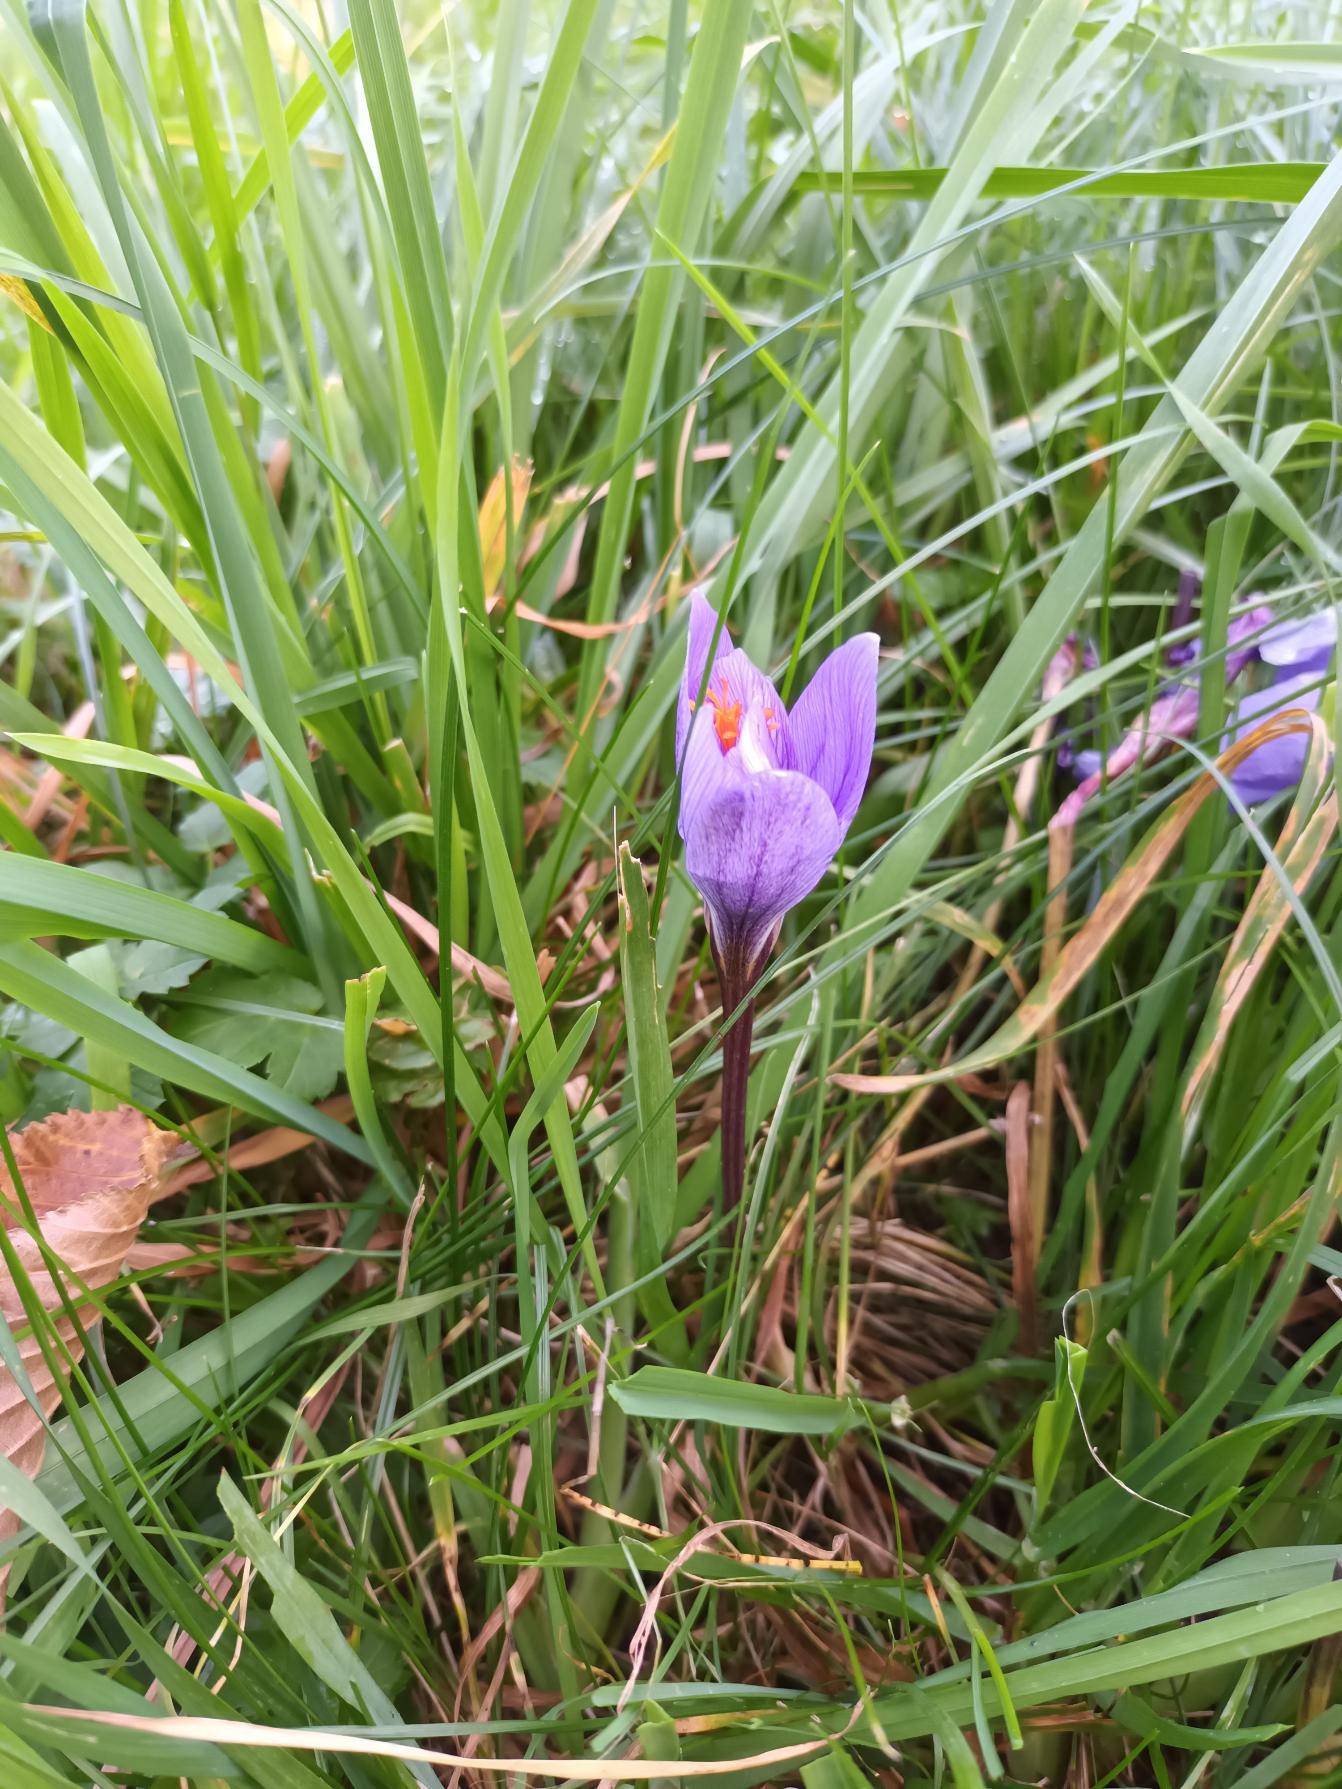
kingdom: Plantae
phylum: Tracheophyta
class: Liliopsida
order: Asparagales
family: Iridaceae
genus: Crocus
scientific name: Crocus speciosus
